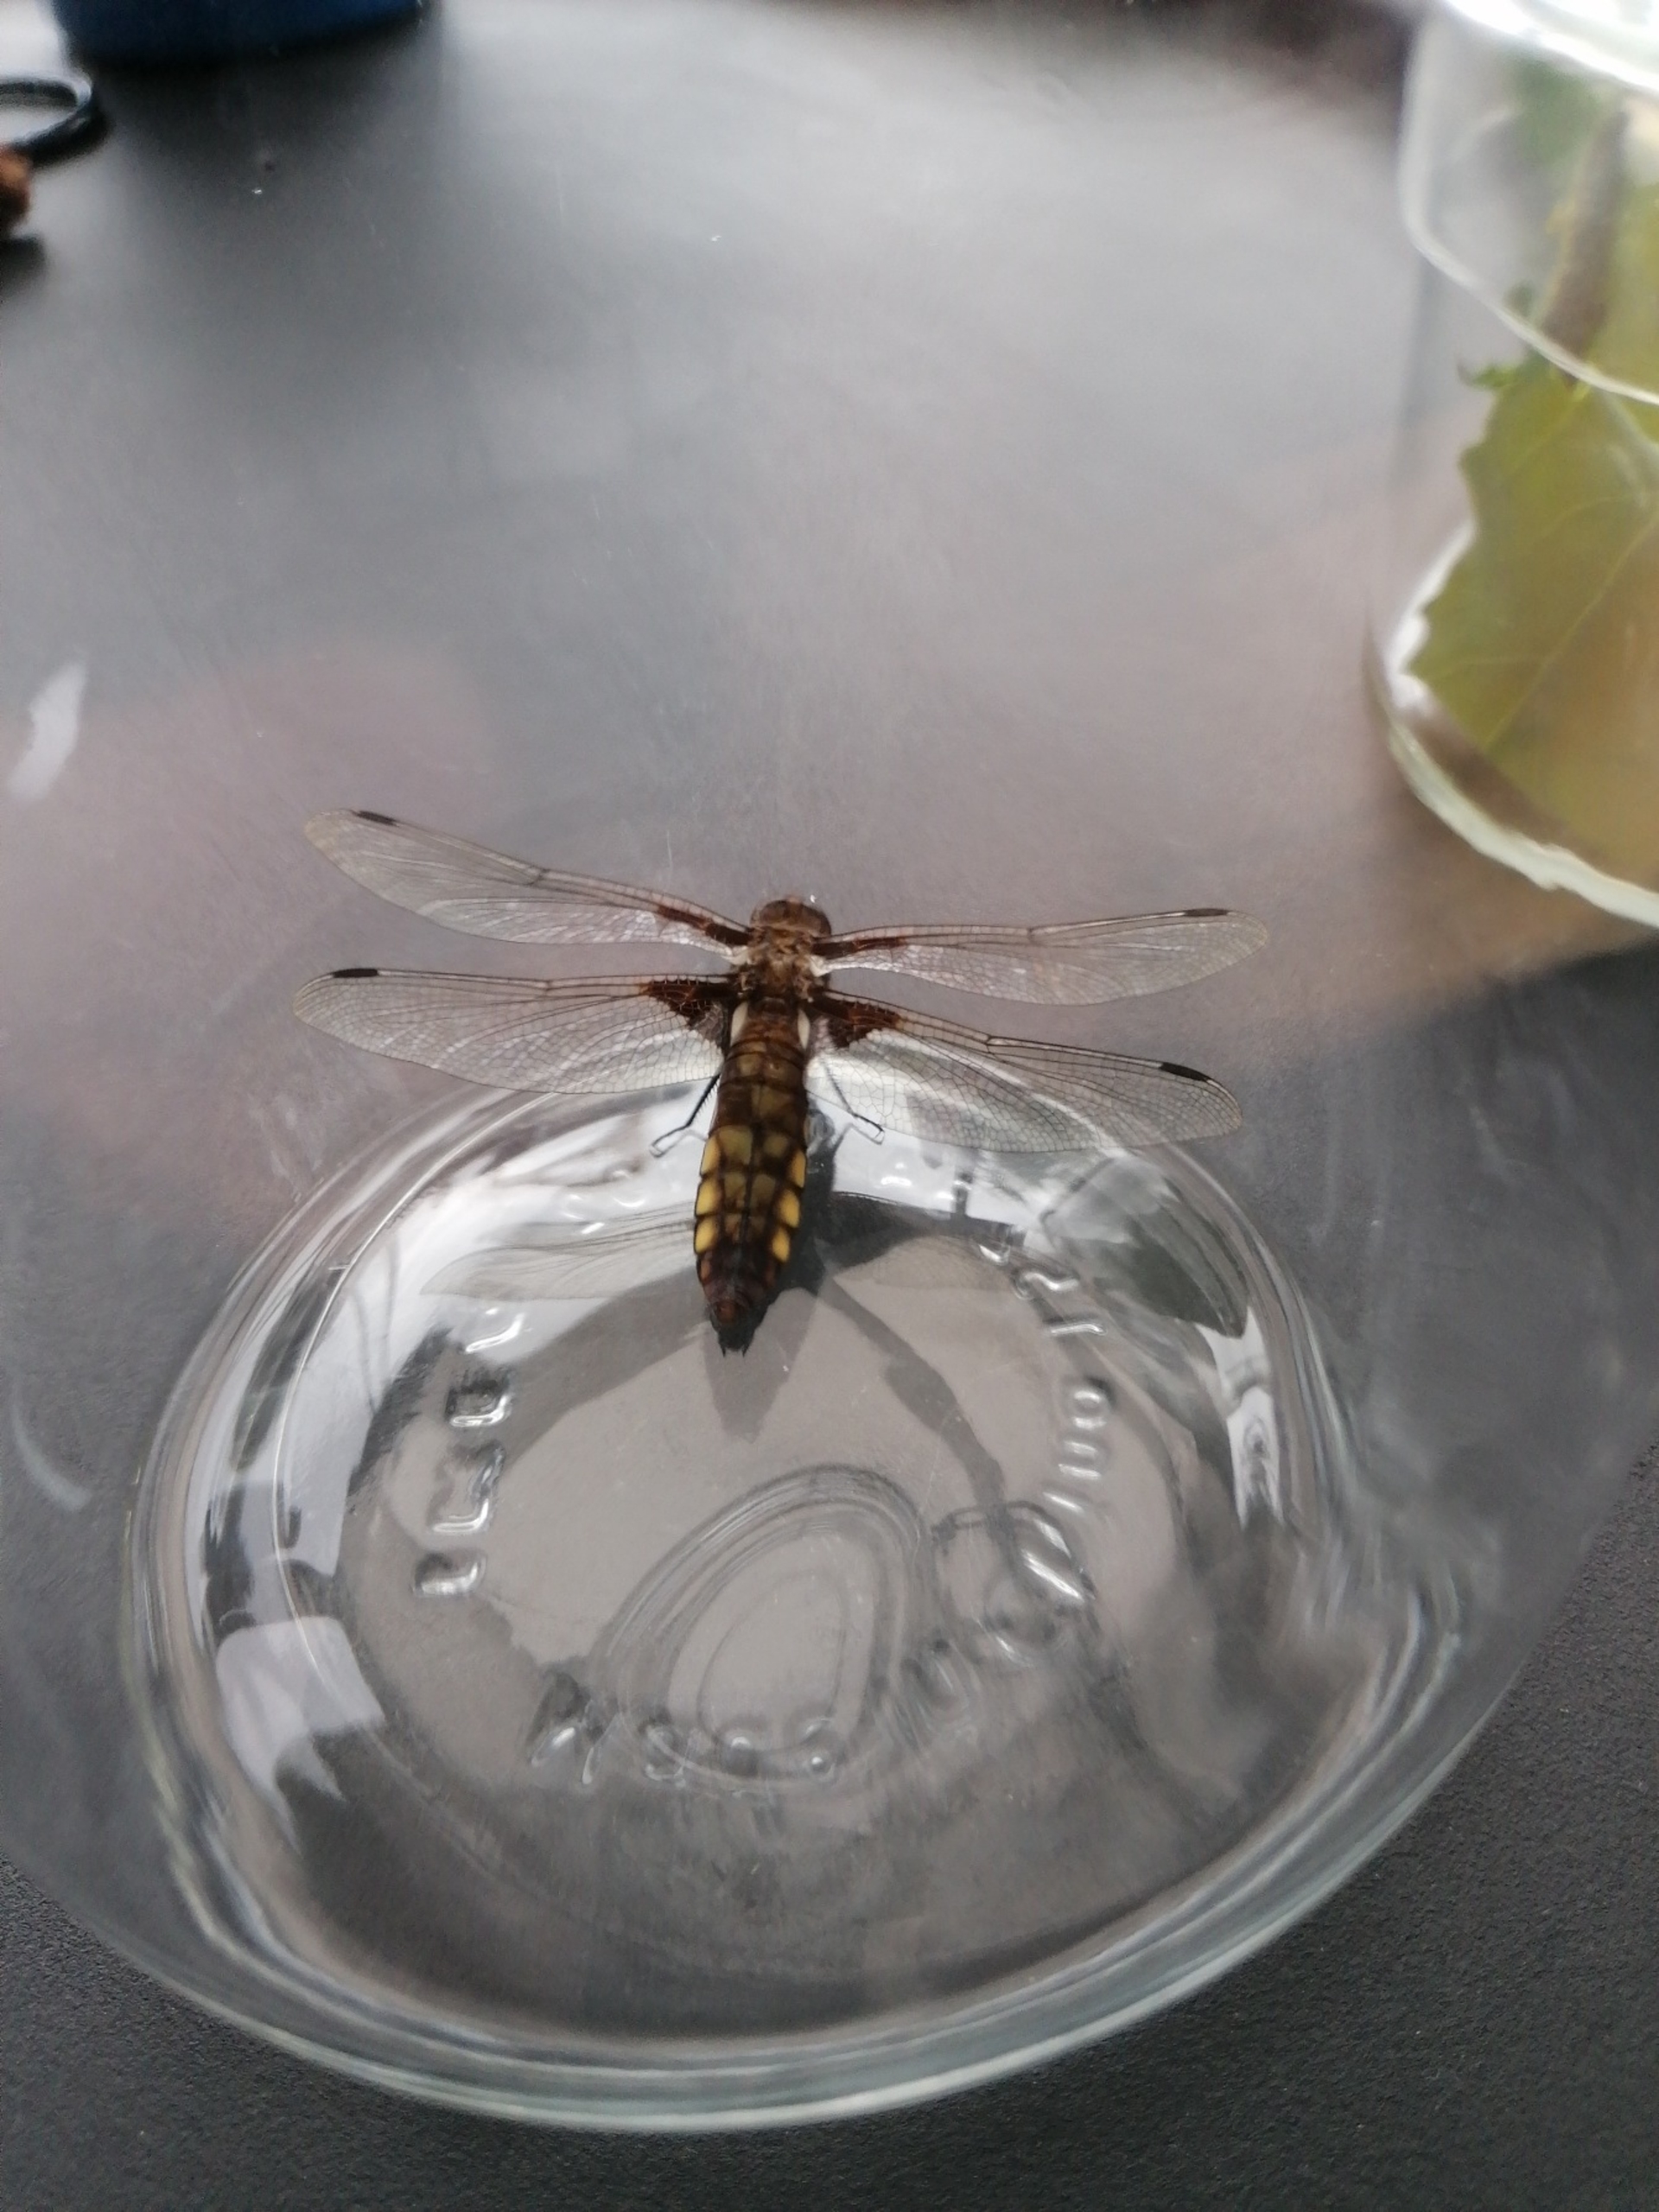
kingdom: Animalia
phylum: Arthropoda
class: Insecta
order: Odonata
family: Libellulidae
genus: Libellula
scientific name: Libellula depressa
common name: Blå libel
